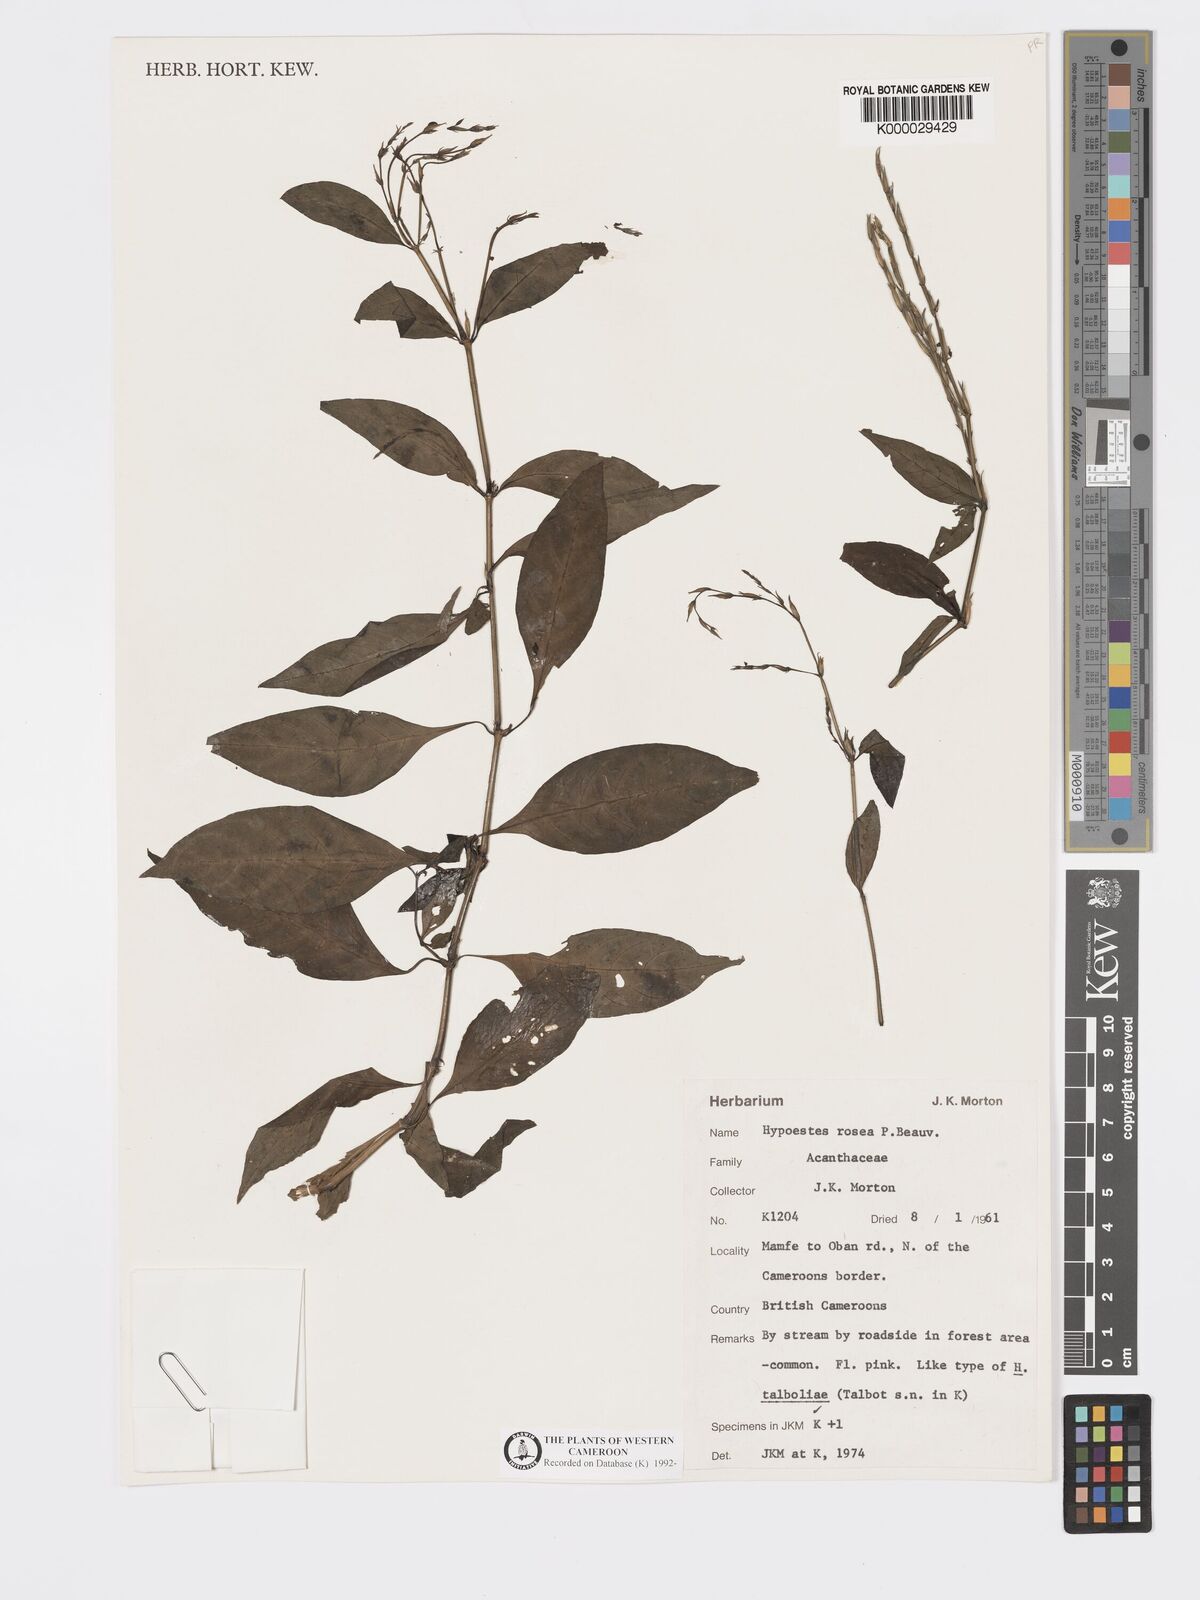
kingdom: Plantae
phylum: Tracheophyta
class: Magnoliopsida
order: Lamiales
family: Acanthaceae
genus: Hypoestes
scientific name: Hypoestes rosea
